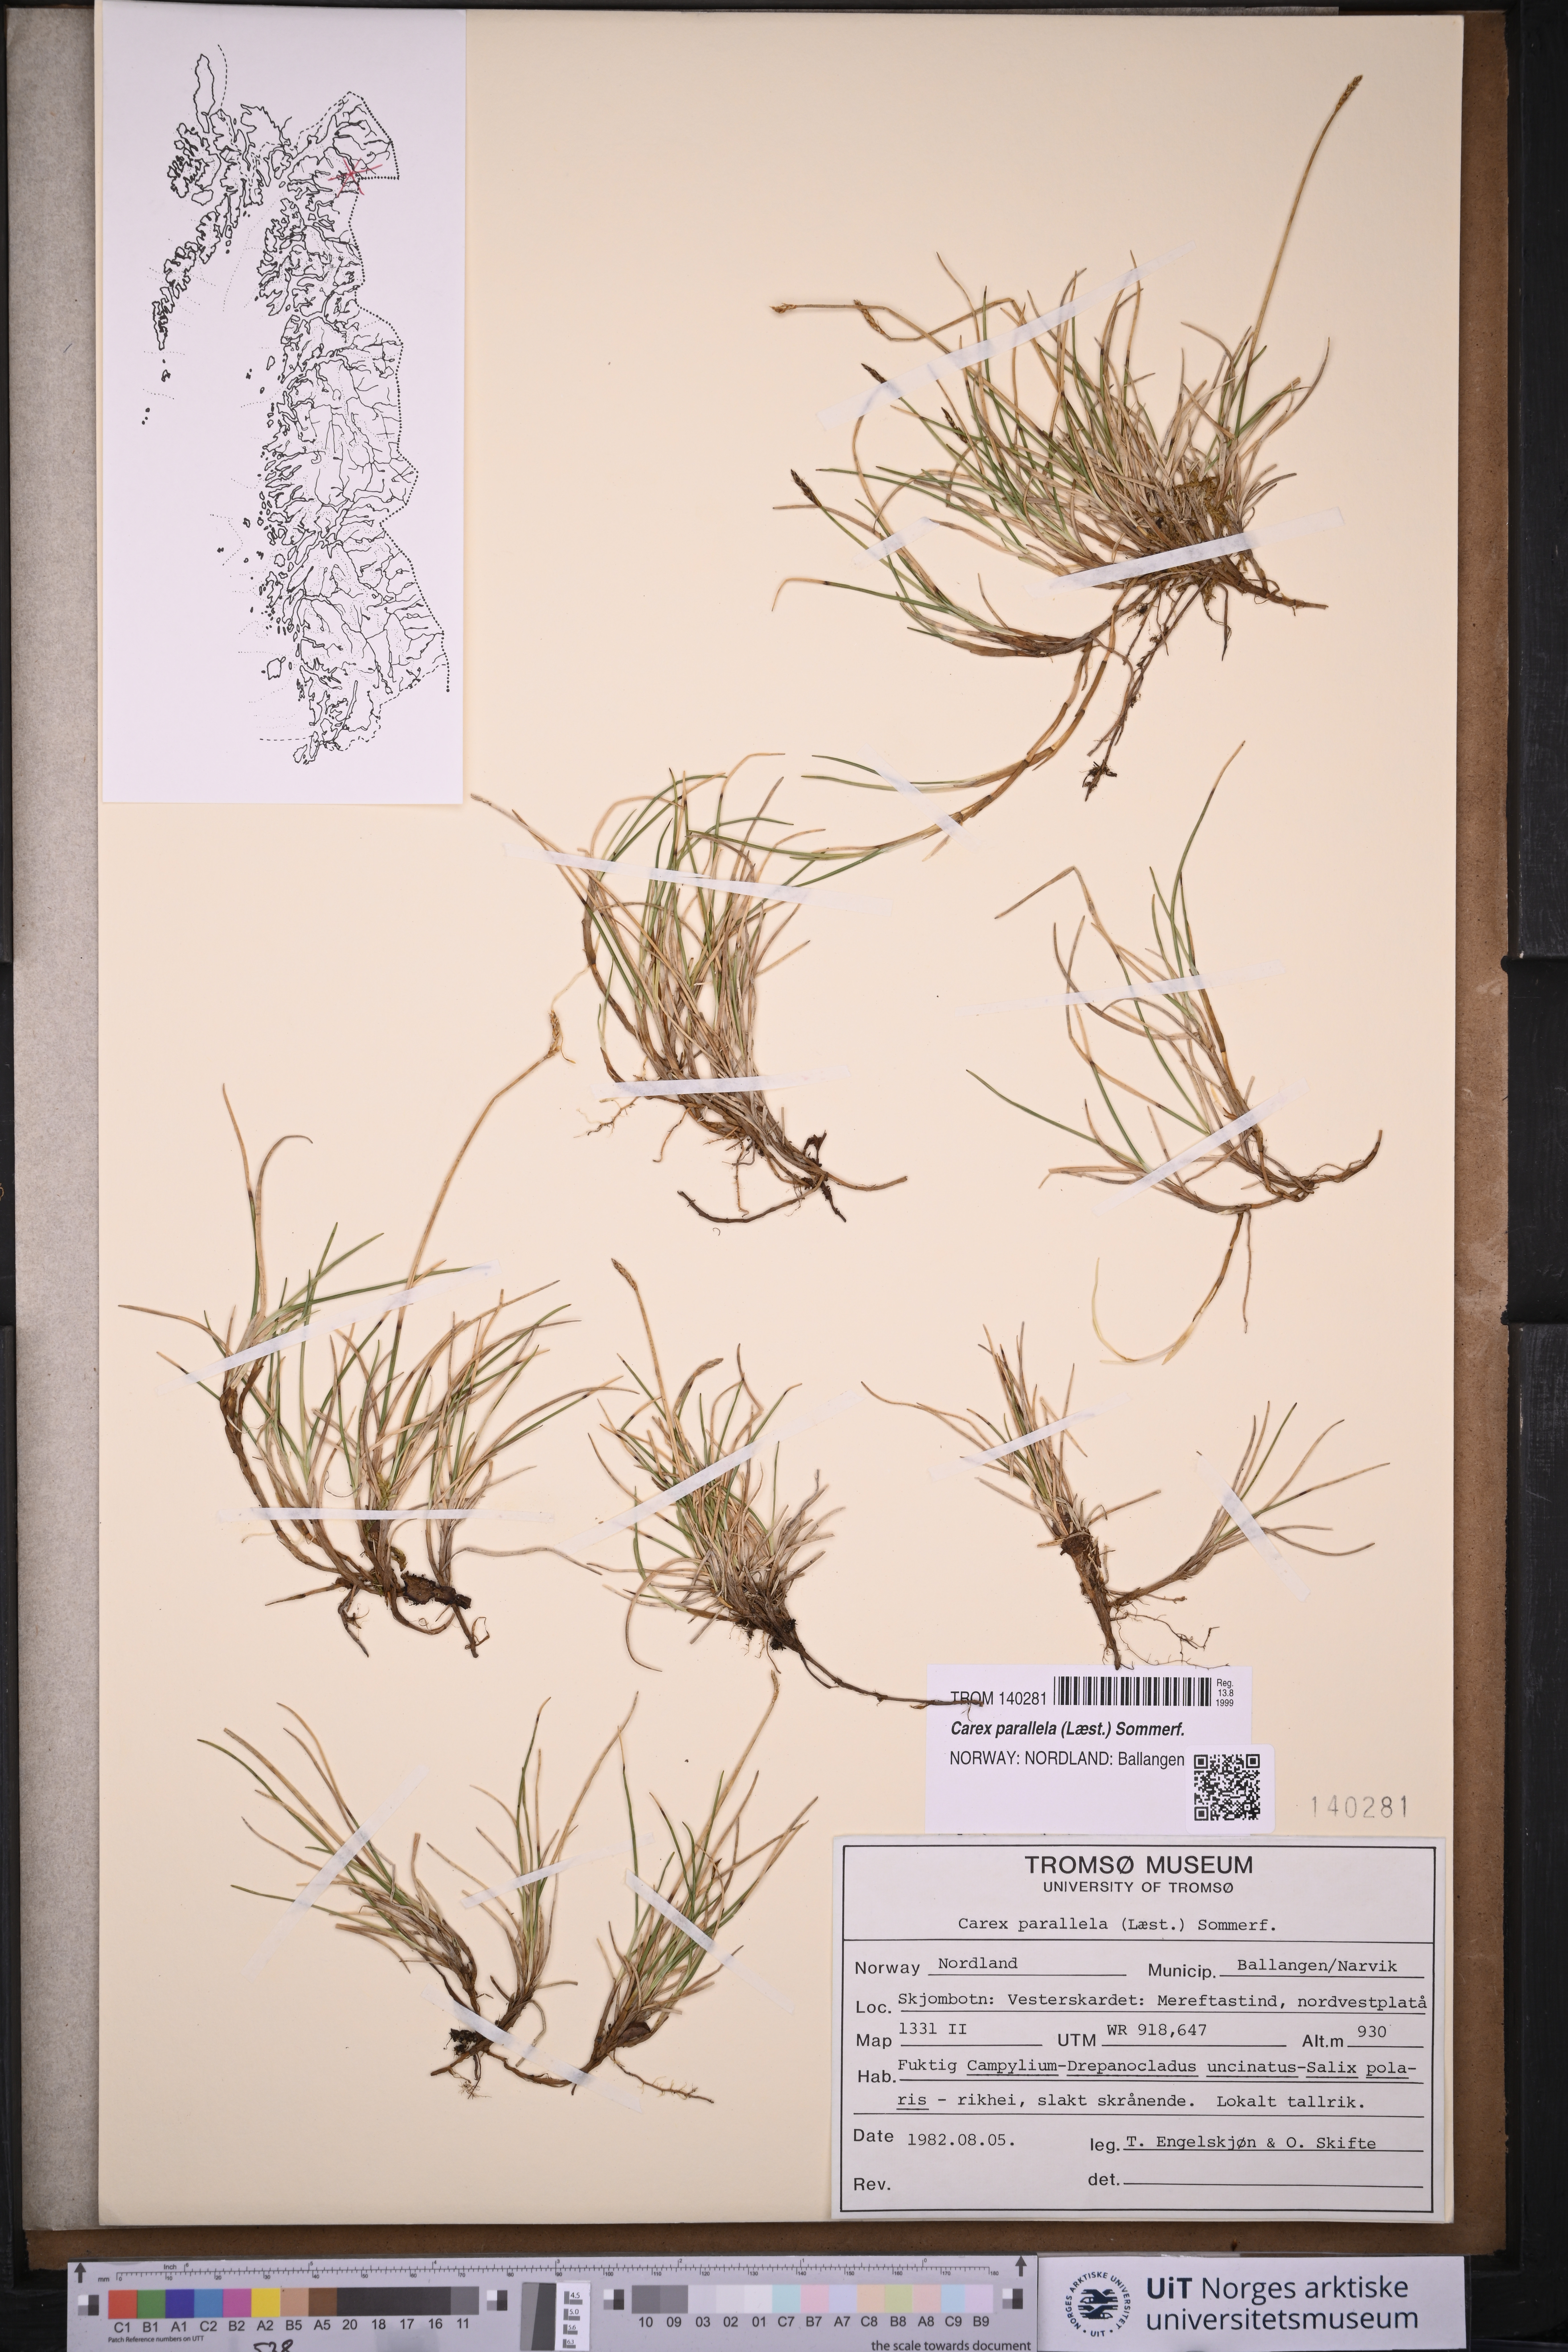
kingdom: Plantae
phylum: Tracheophyta
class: Liliopsida
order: Poales
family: Cyperaceae
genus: Carex
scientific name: Carex parallela
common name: Parallel sedge
